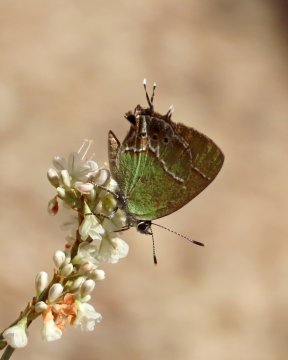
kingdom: Animalia
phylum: Arthropoda
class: Insecta
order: Lepidoptera
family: Lycaenidae
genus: Xamia
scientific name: Xamia xami
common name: Xami Hairstreak
